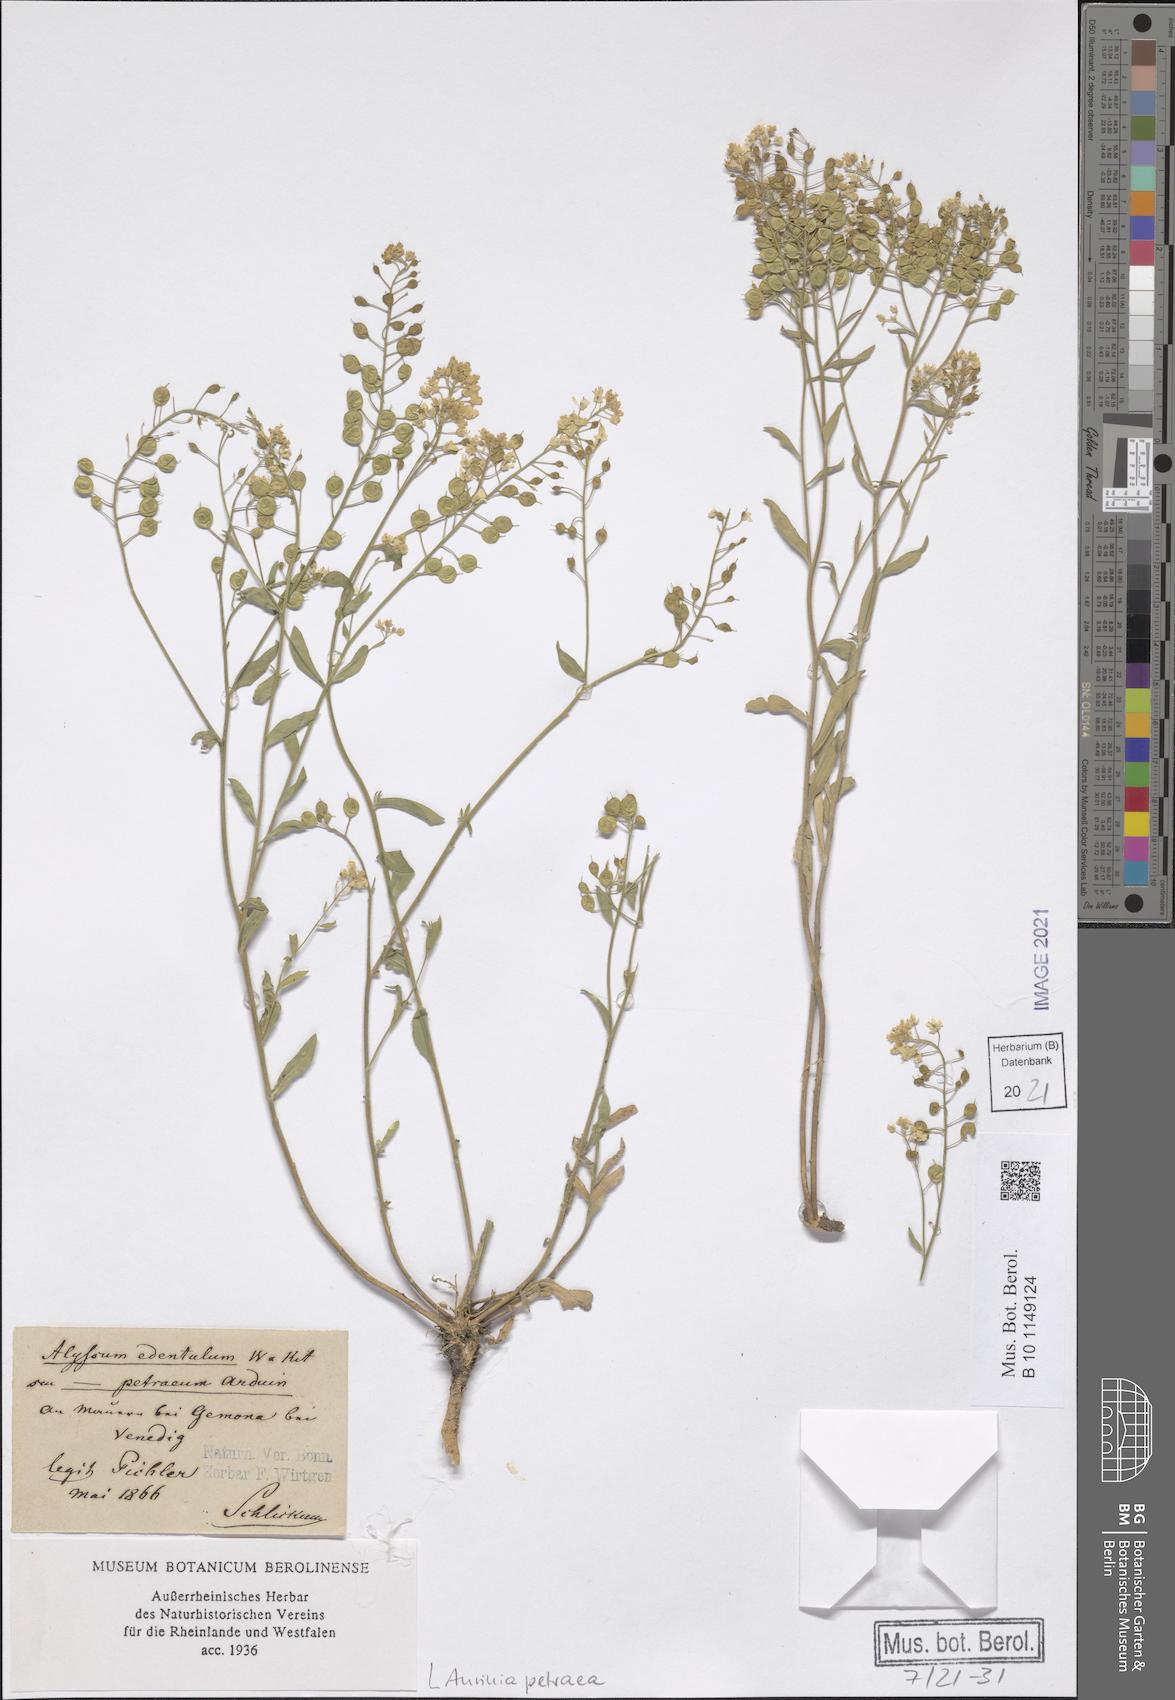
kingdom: Plantae
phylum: Tracheophyta
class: Magnoliopsida
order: Brassicales
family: Brassicaceae
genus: Aurinia
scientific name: Aurinia petraea
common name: Goldentuft
